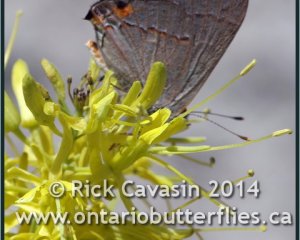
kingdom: Animalia
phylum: Arthropoda
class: Insecta
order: Lepidoptera
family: Lycaenidae
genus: Strymon
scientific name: Strymon melinus
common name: Gray Hairstreak
